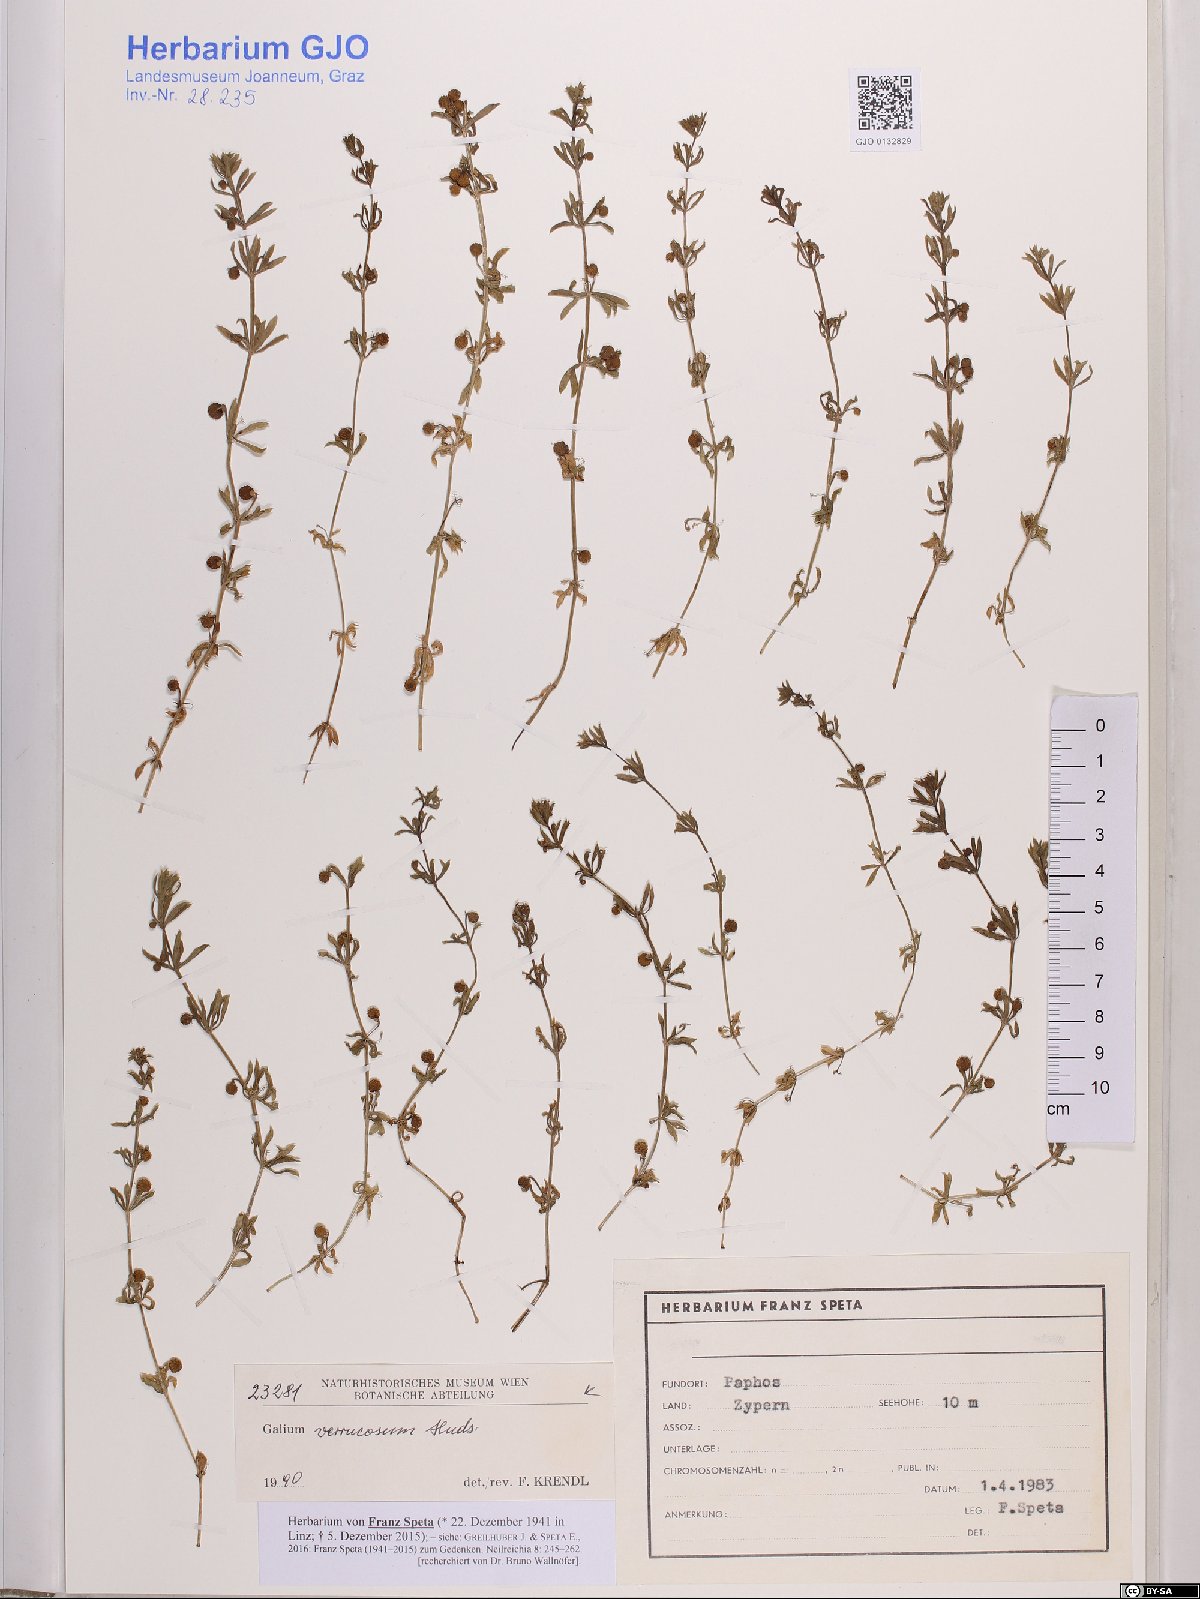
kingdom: Plantae
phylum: Tracheophyta
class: Magnoliopsida
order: Gentianales
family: Rubiaceae
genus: Galium
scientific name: Galium verrucosum
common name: Warty bedstraw
